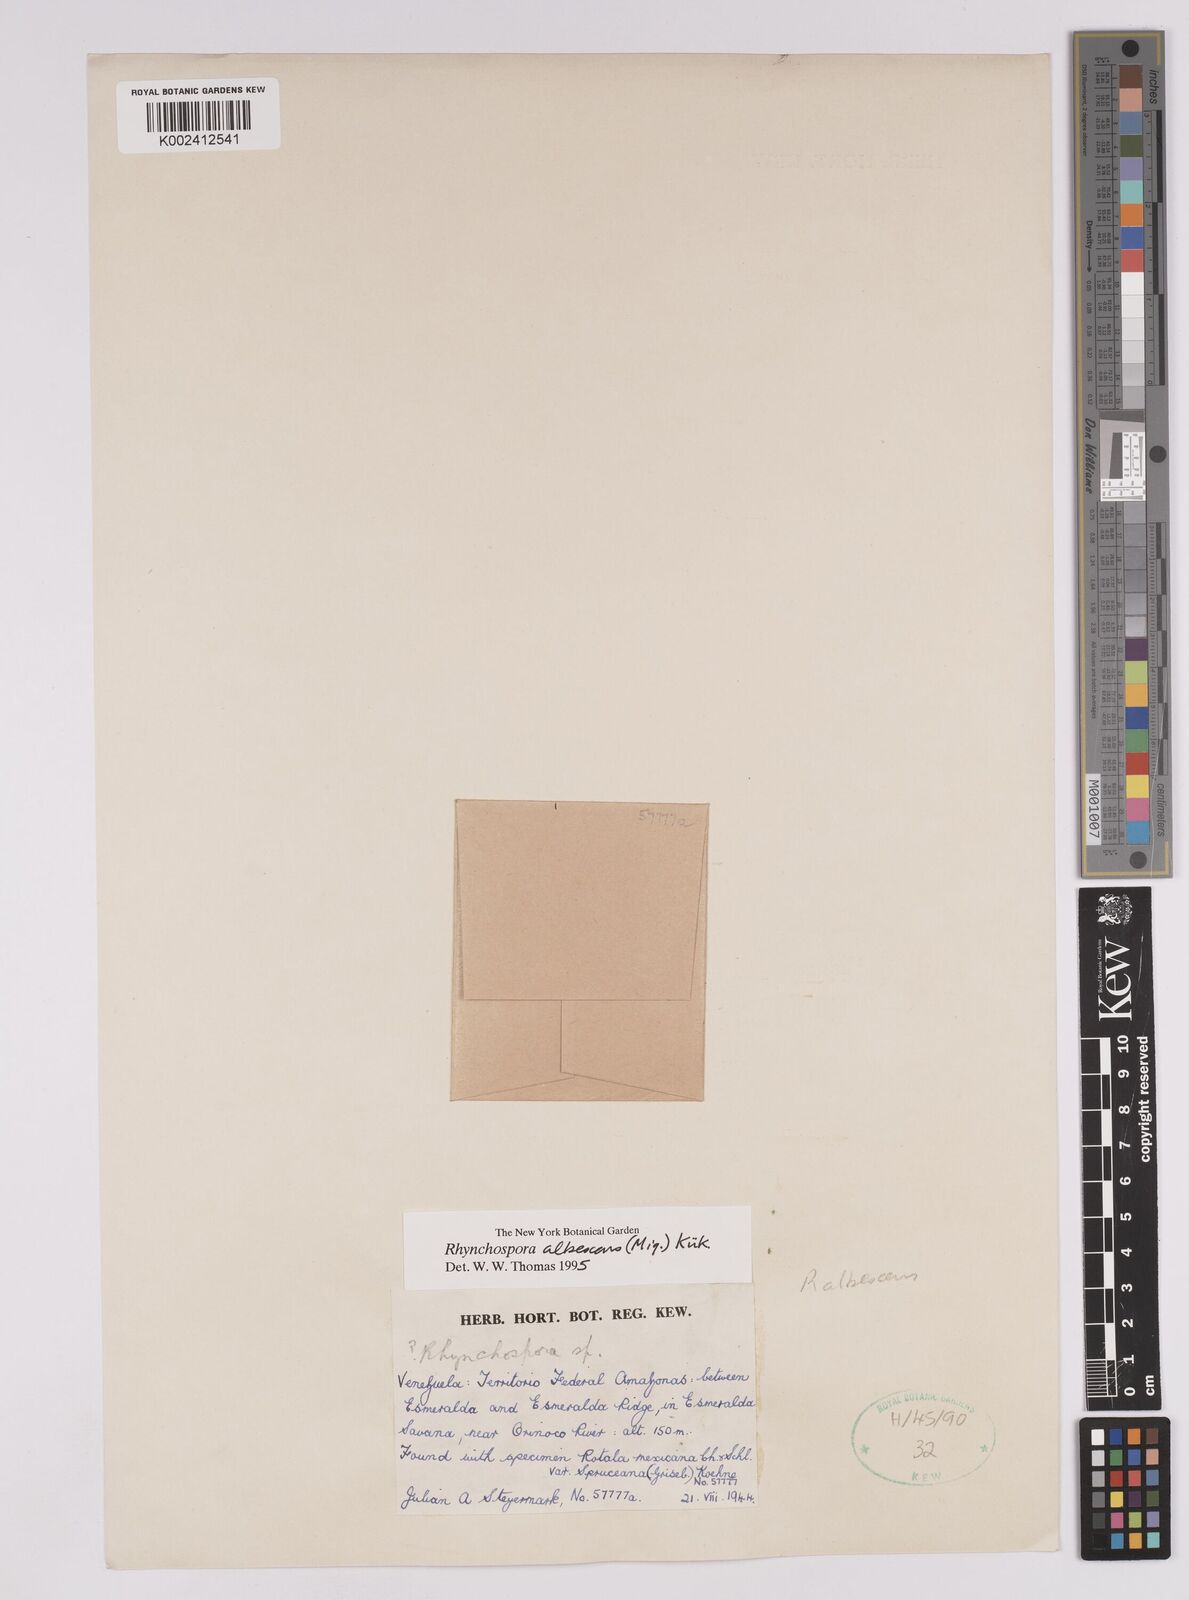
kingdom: Plantae
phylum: Tracheophyta
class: Liliopsida
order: Poales
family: Cyperaceae
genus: Rhynchospora
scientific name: Rhynchospora albescens
